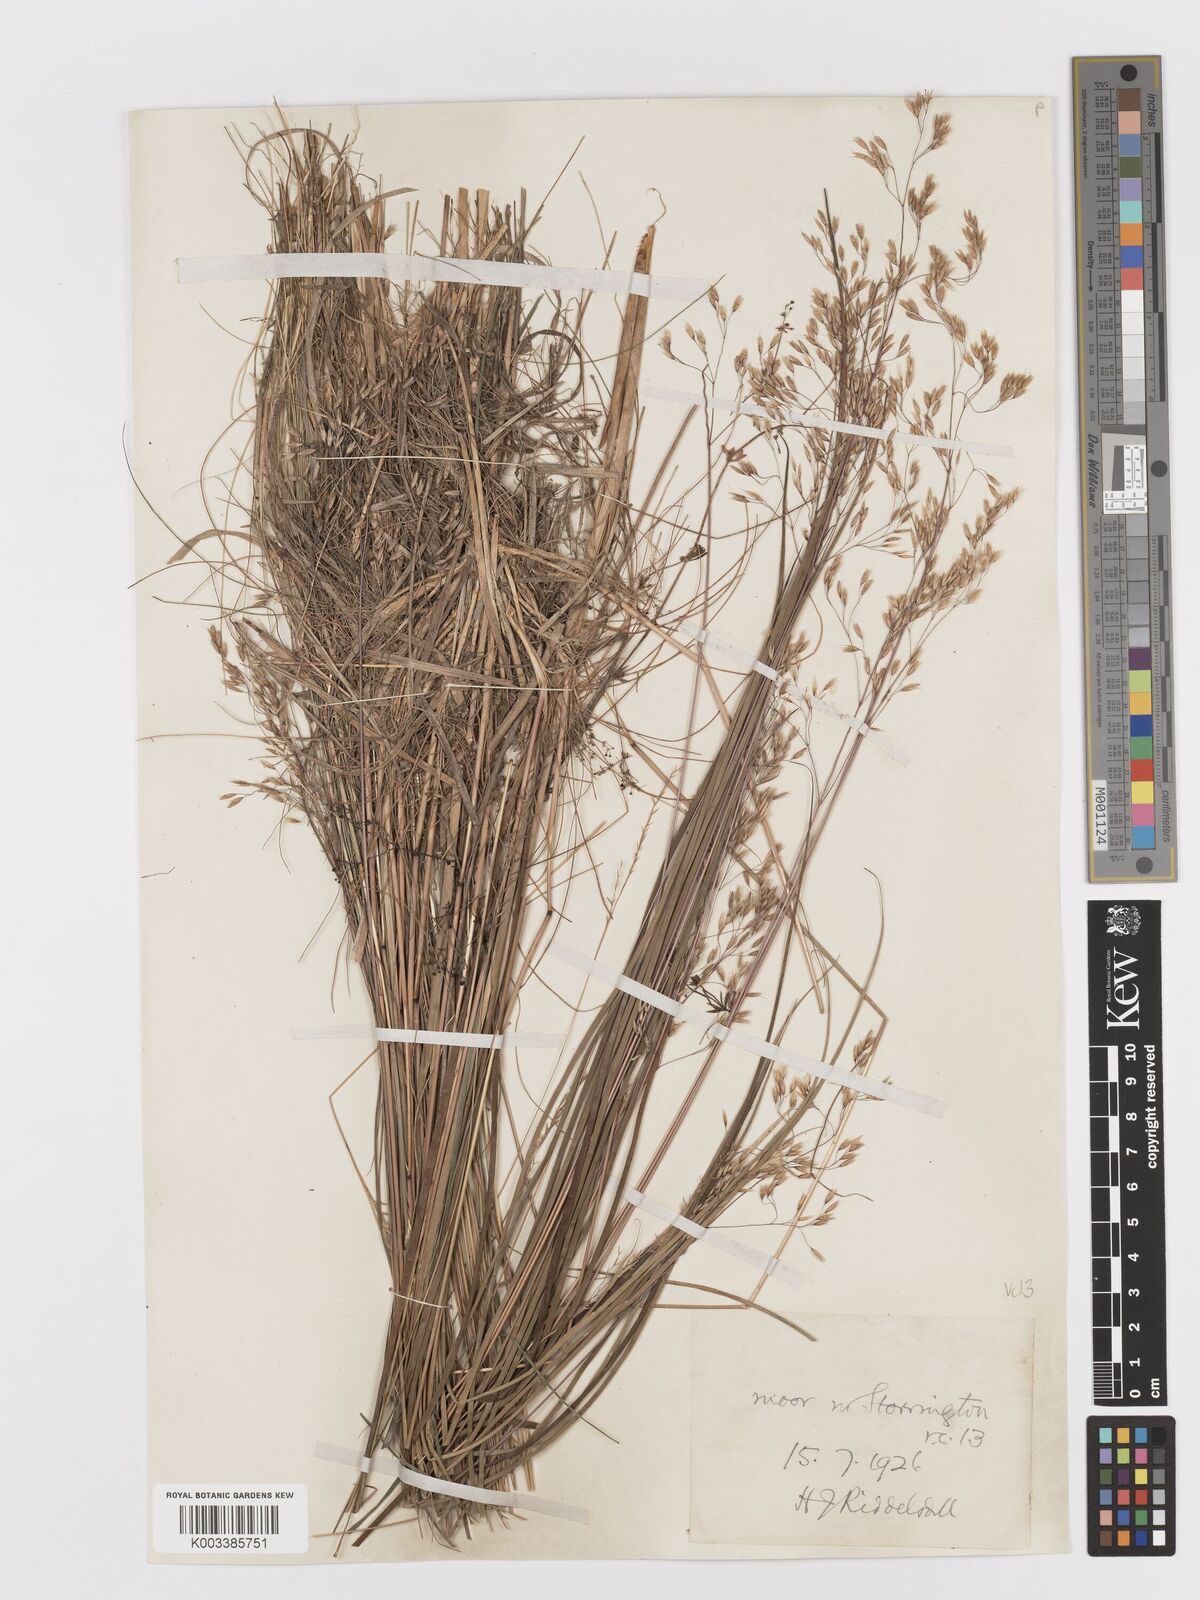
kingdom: Plantae
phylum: Tracheophyta
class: Liliopsida
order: Poales
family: Poaceae
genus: Avenella
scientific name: Avenella flexuosa
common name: Wavy hairgrass
